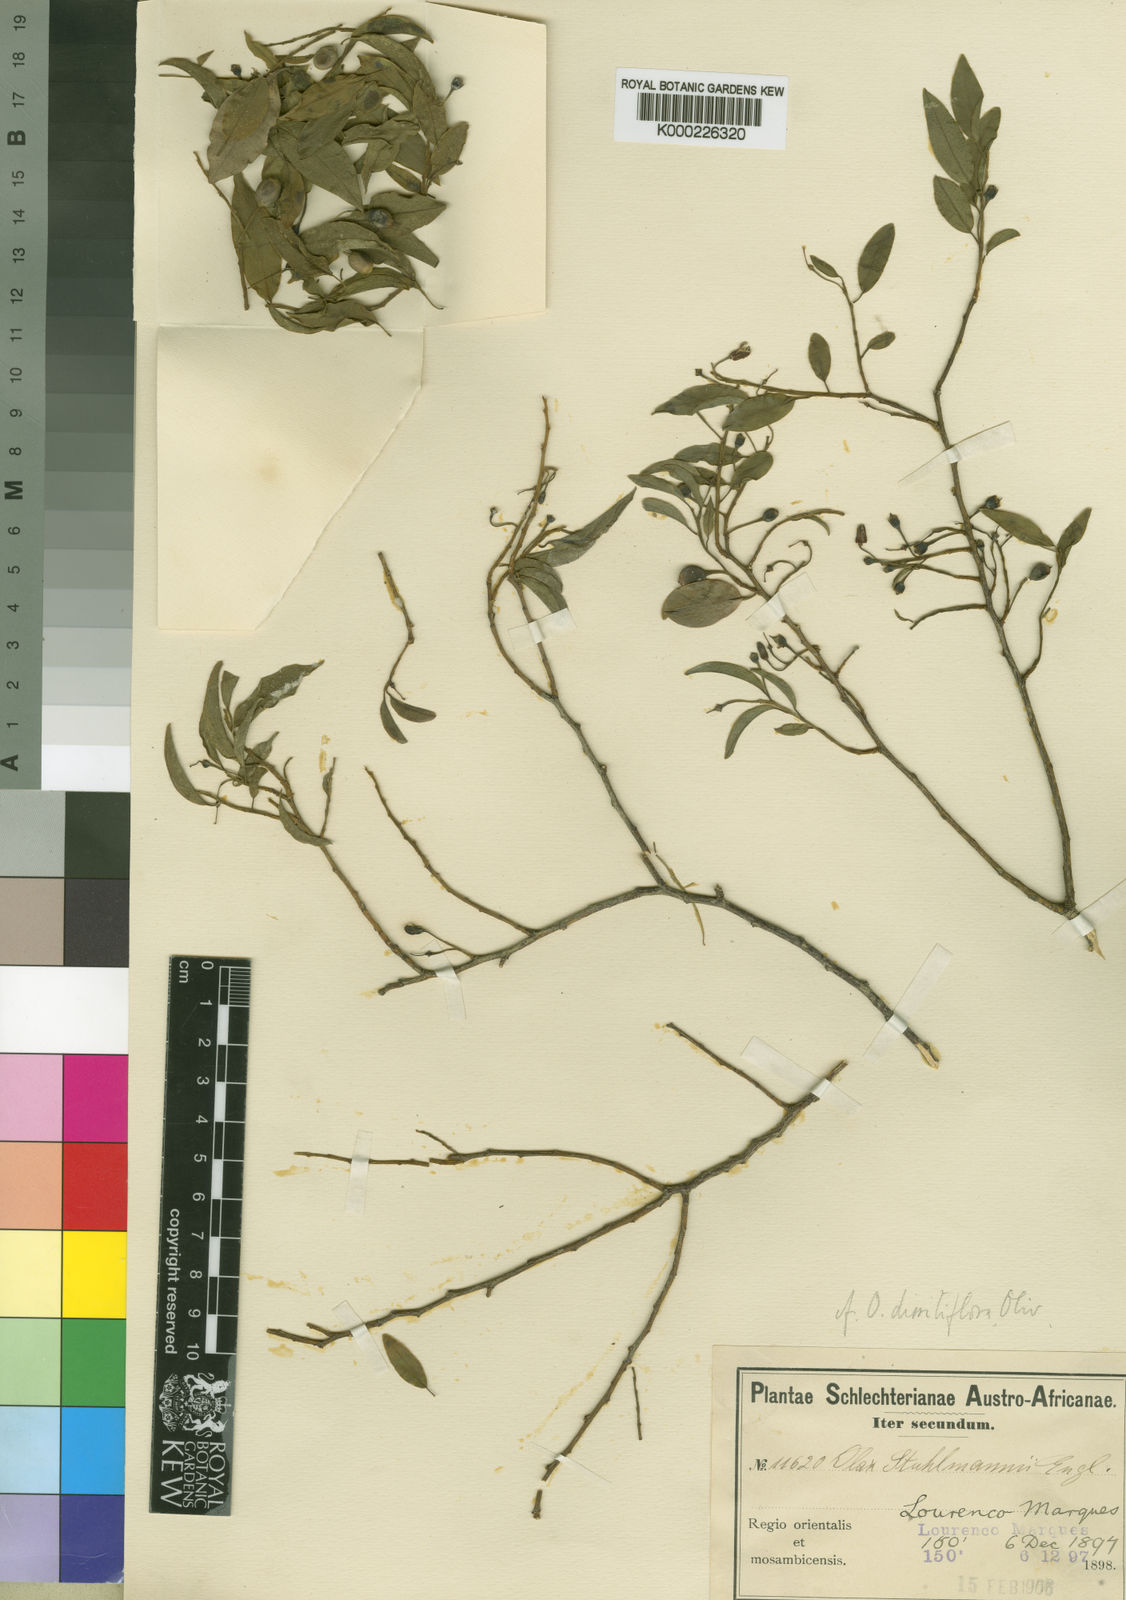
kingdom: Plantae
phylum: Tracheophyta
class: Magnoliopsida
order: Santalales
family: Olacaceae
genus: Olax
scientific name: Olax dissitiflora
